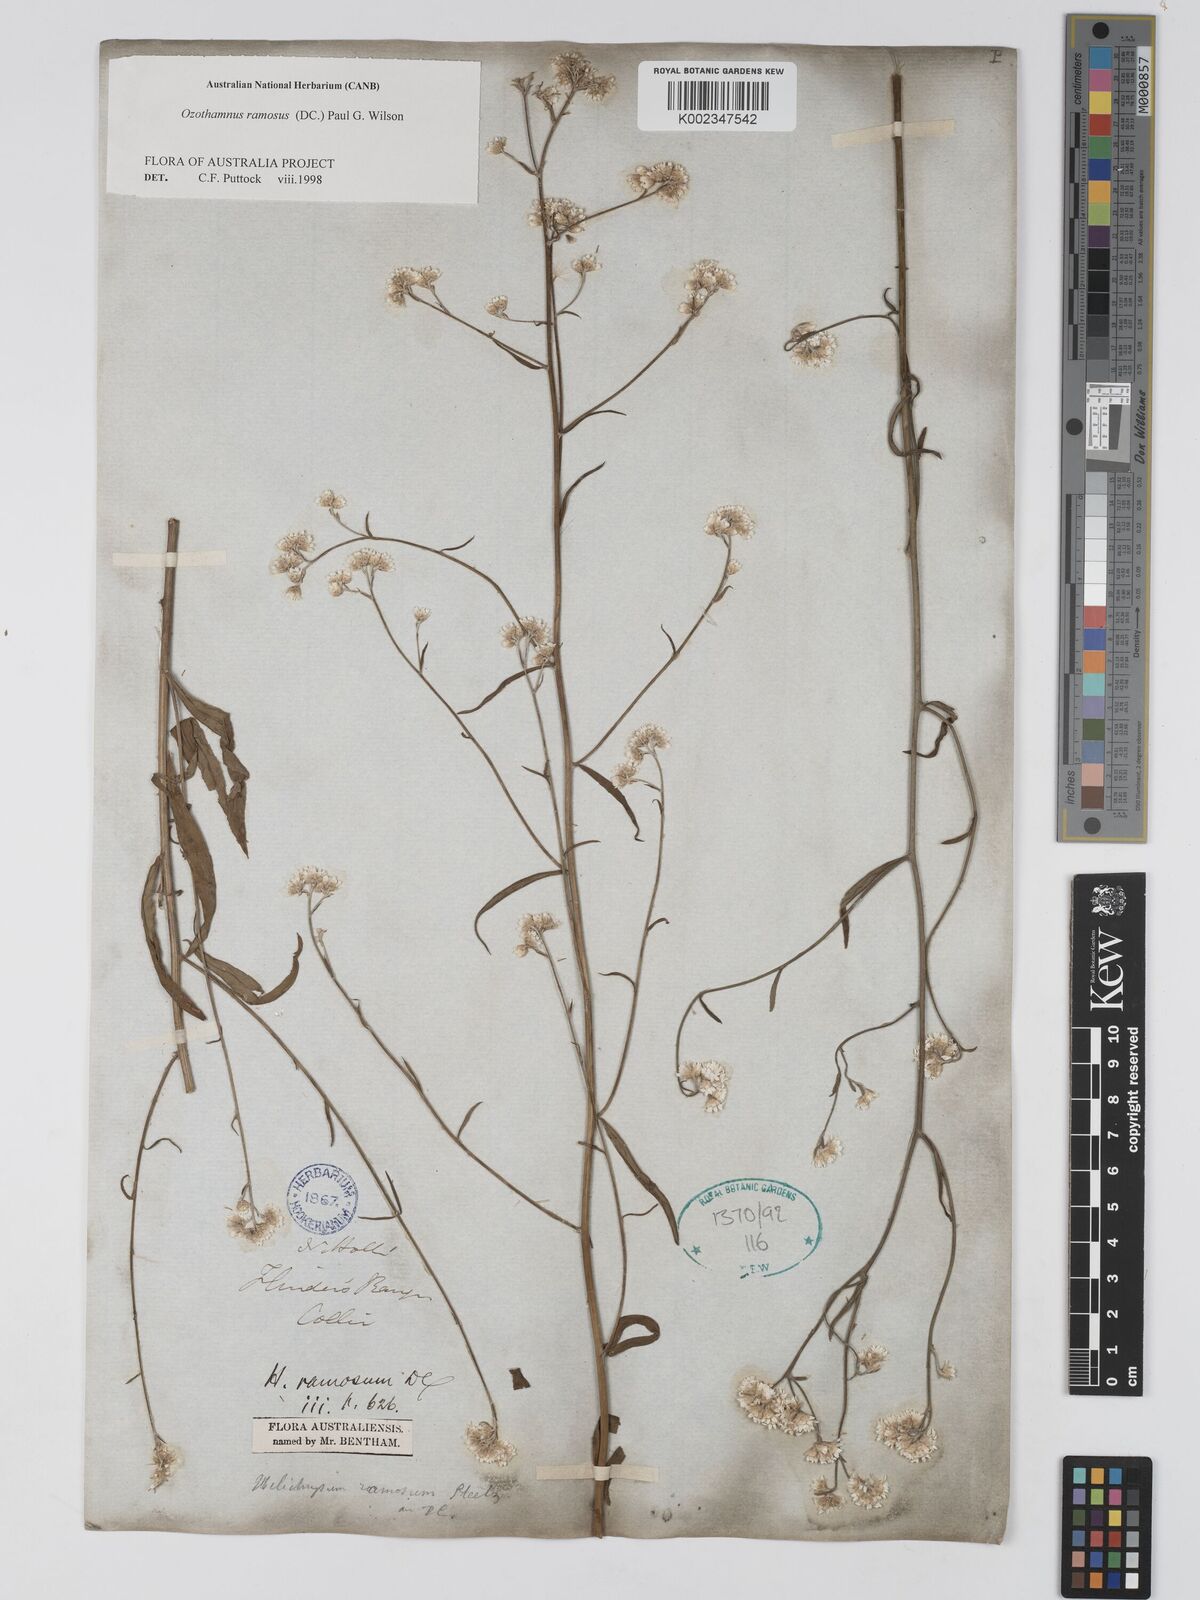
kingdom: Plantae
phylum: Tracheophyta
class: Magnoliopsida
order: Asterales
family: Asteraceae
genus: Pithocarpa
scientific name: Pithocarpa ramosa
